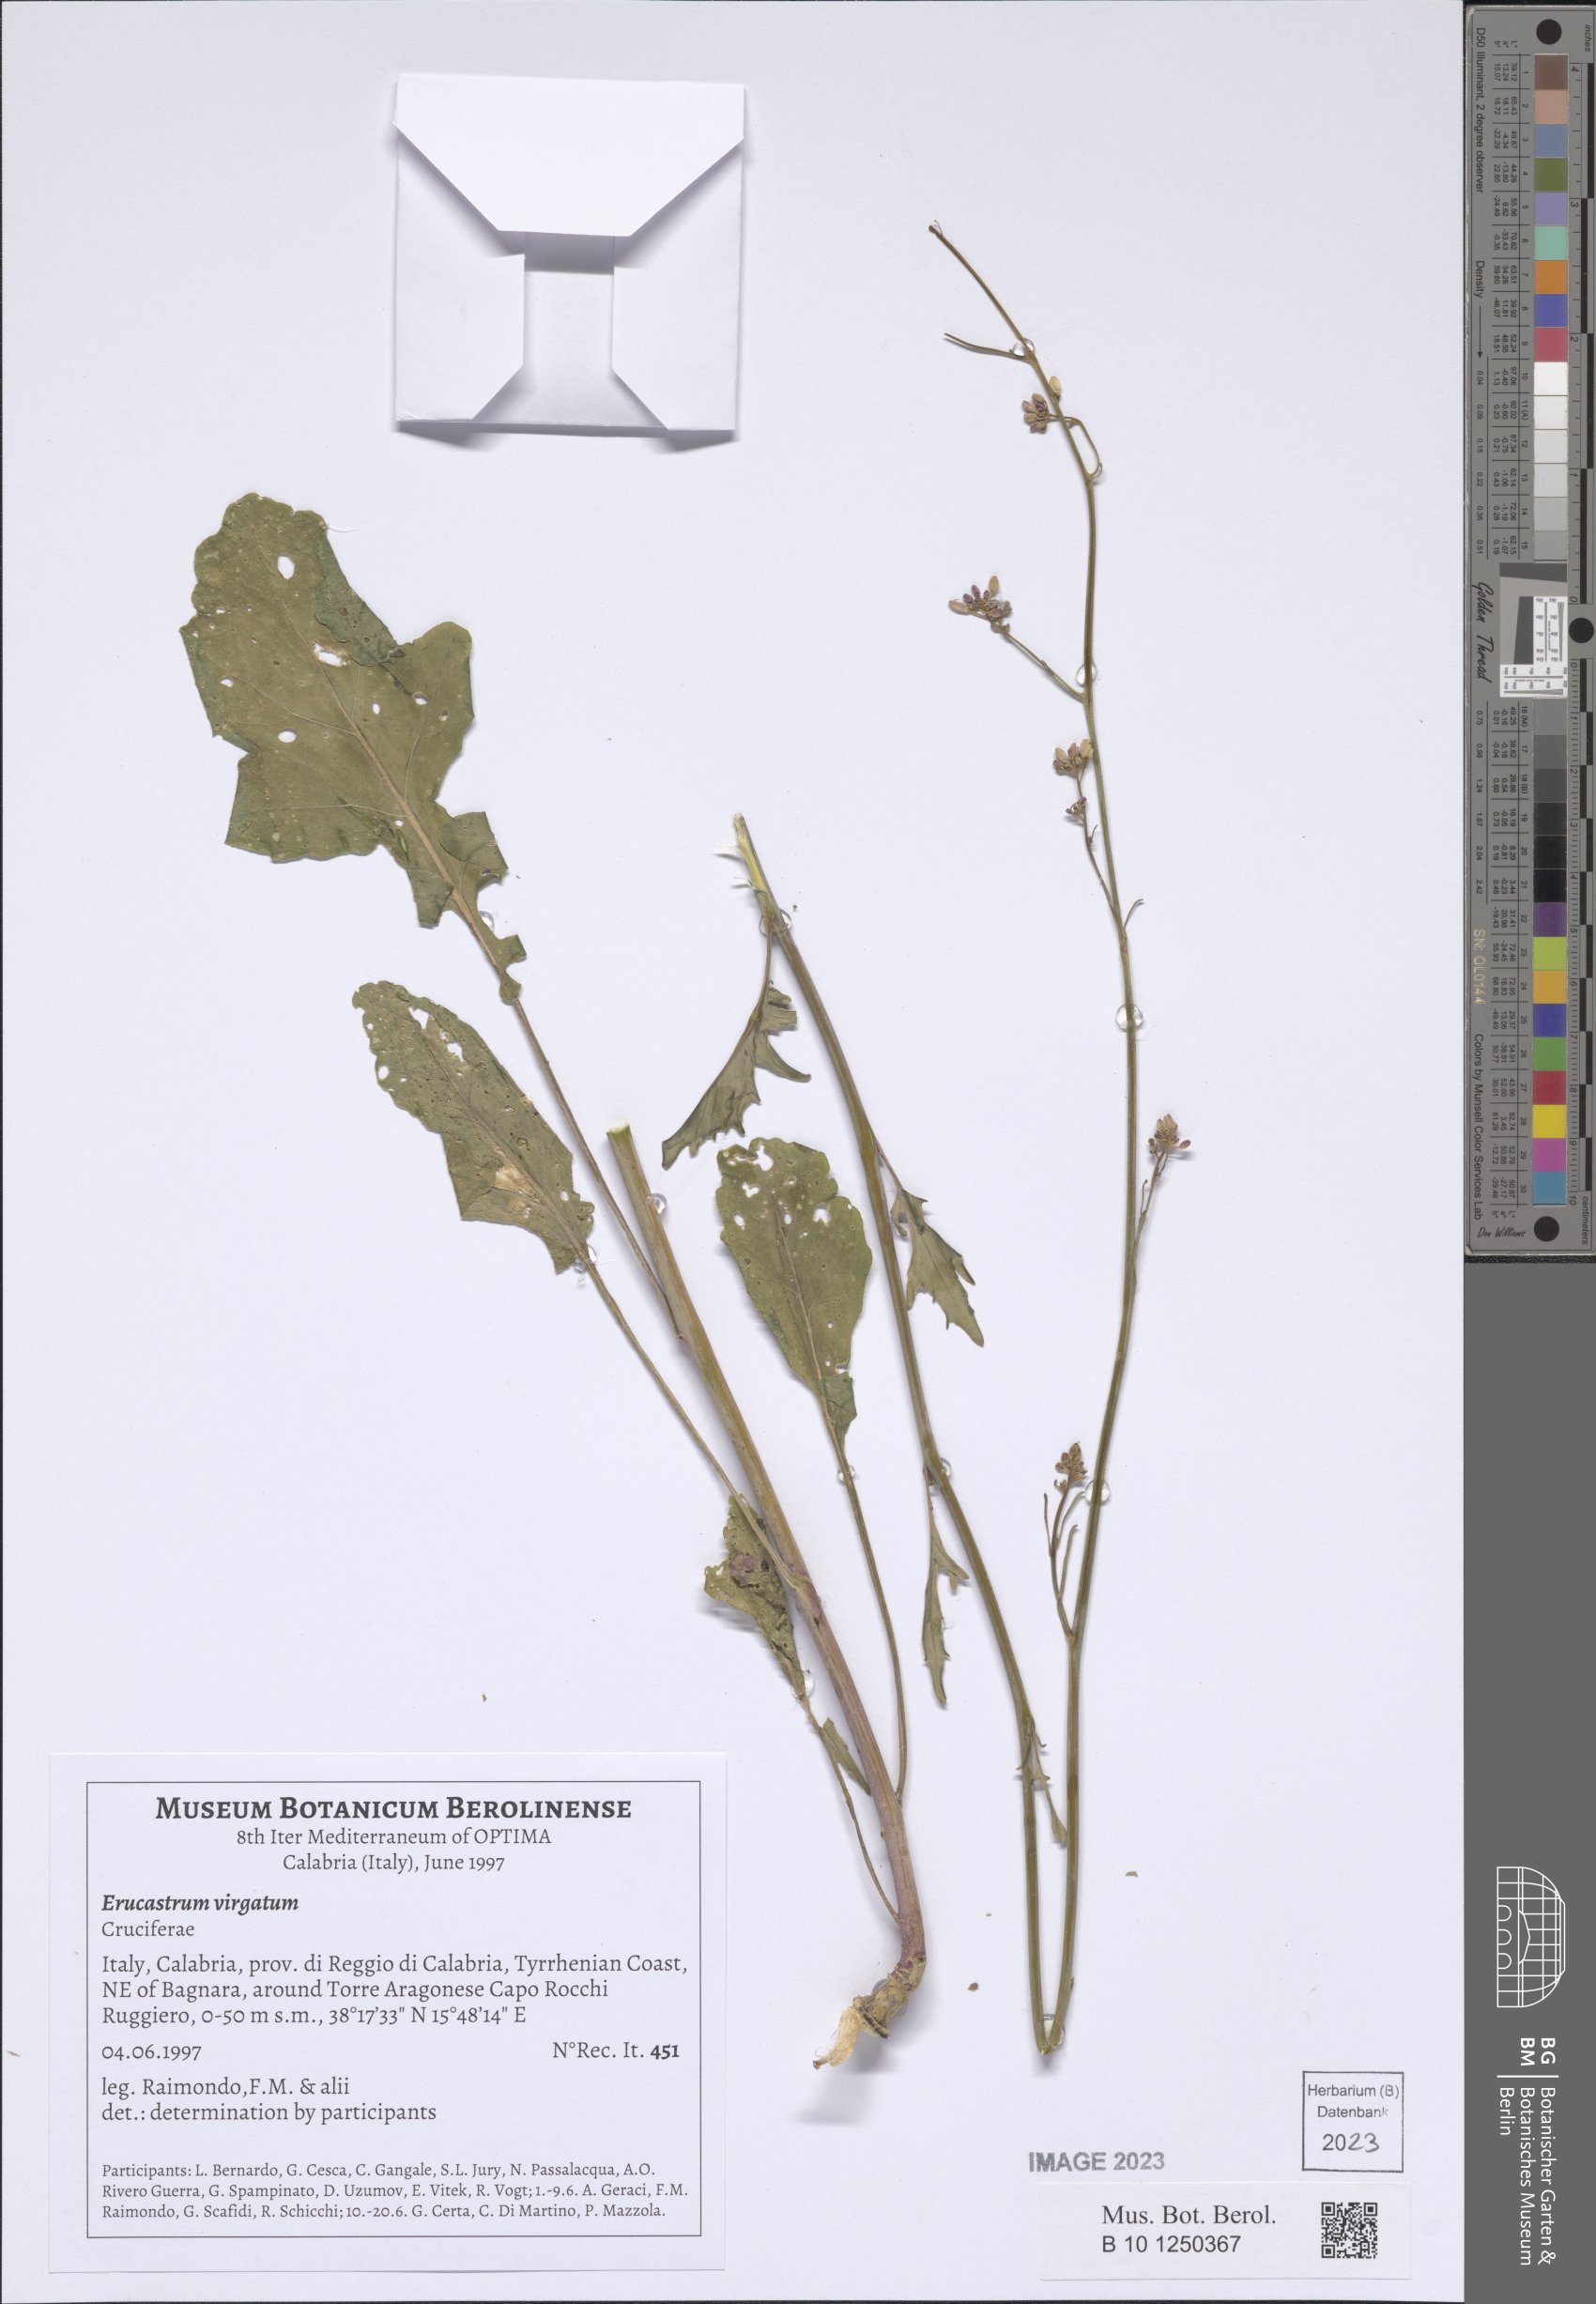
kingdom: Plantae
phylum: Tracheophyta
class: Magnoliopsida
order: Brassicales
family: Brassicaceae
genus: Erucastrum
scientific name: Erucastrum virgatum
